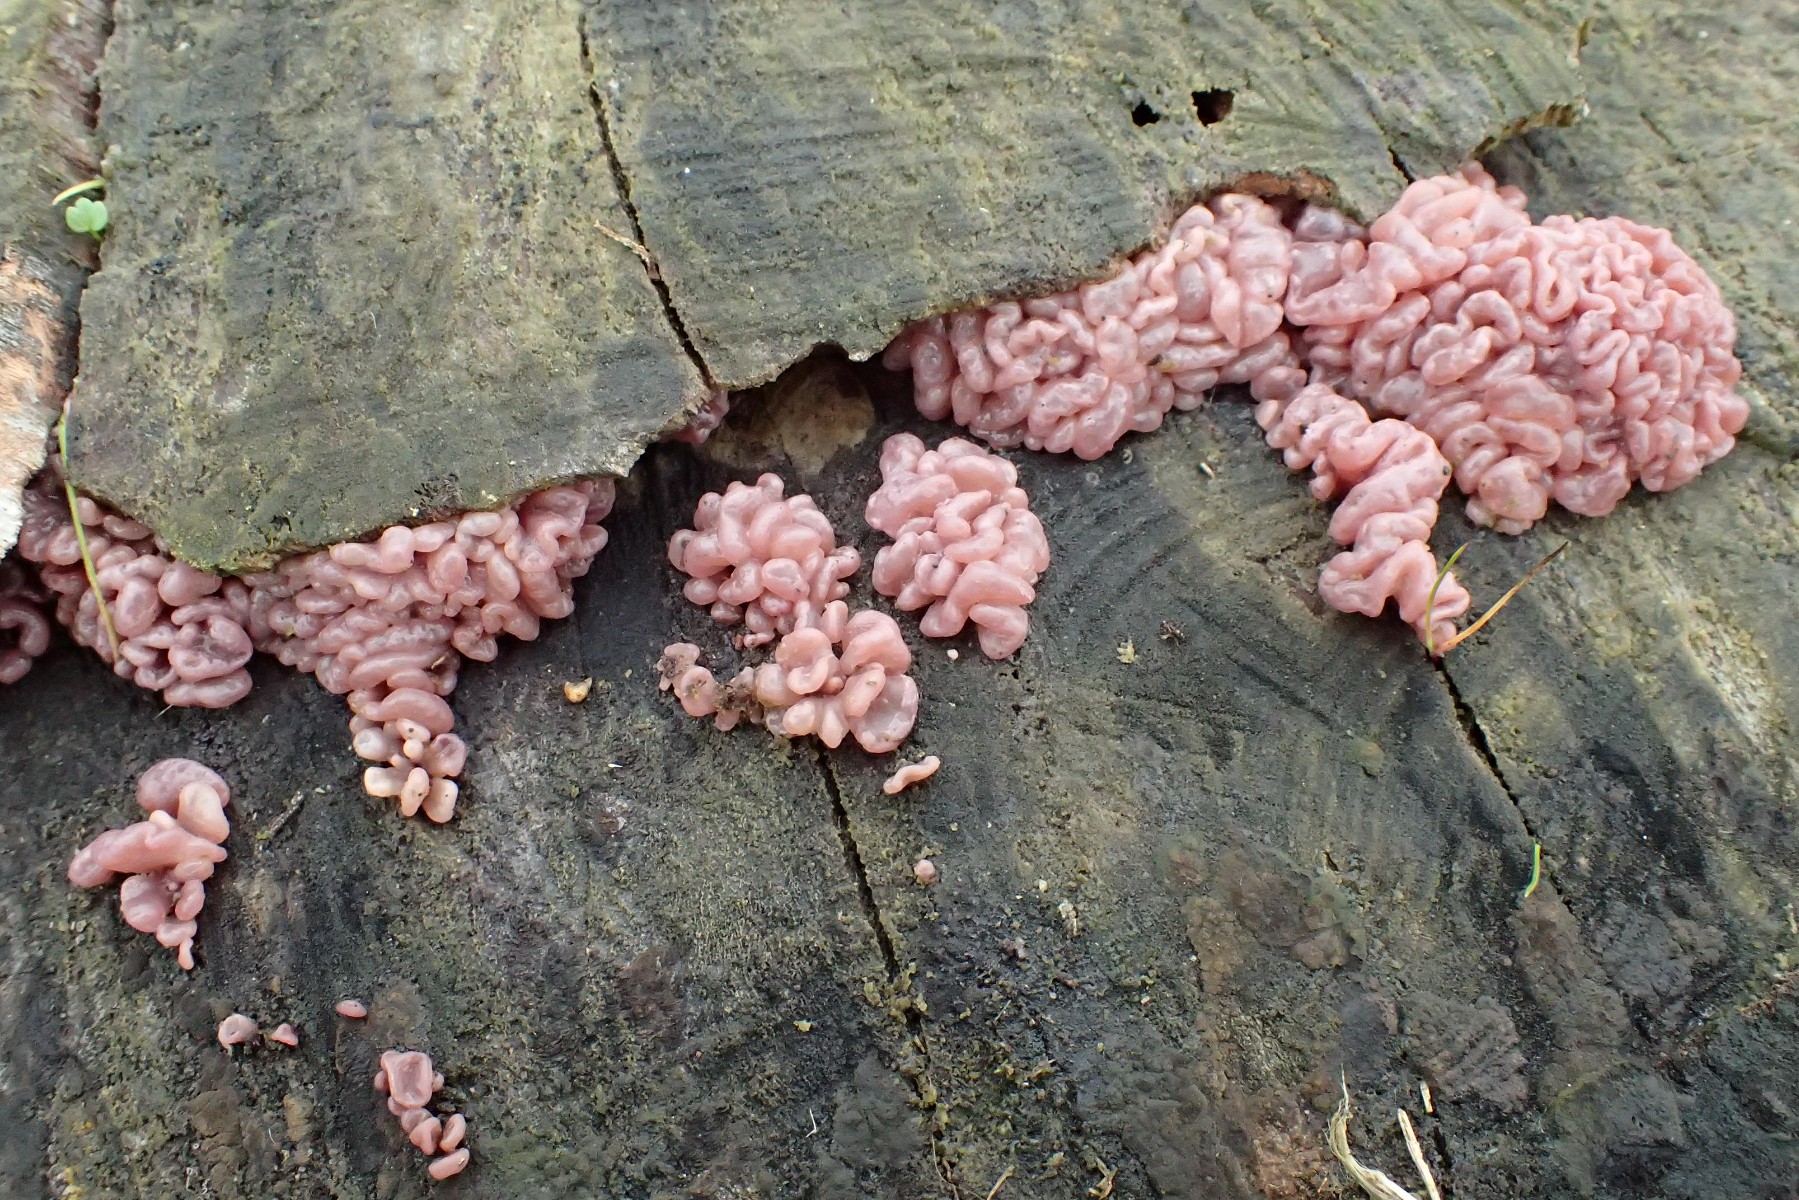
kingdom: Fungi
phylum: Ascomycota
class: Leotiomycetes
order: Helotiales
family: Gelatinodiscaceae
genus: Ascocoryne
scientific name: Ascocoryne sarcoides
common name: rødlilla sejskive
